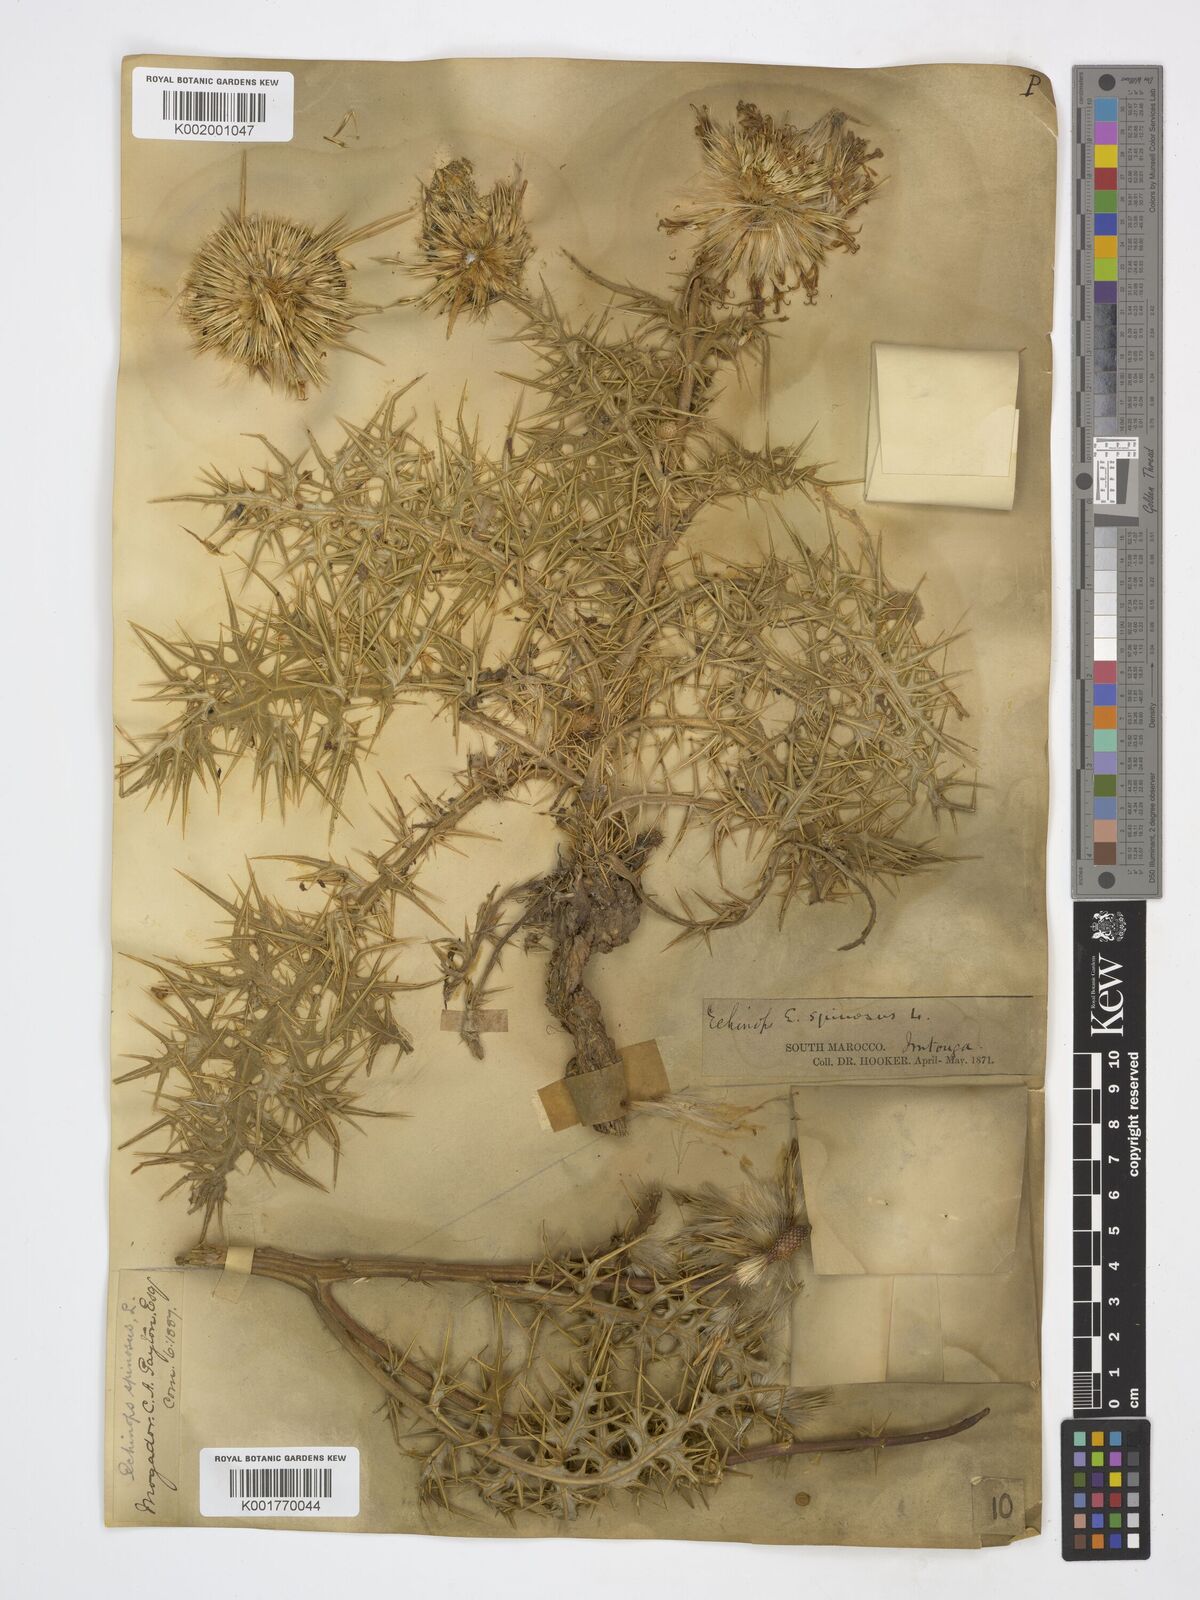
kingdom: Plantae
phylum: Tracheophyta
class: Magnoliopsida
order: Asterales
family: Asteraceae
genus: Echinops
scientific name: Echinops spinosissimus
